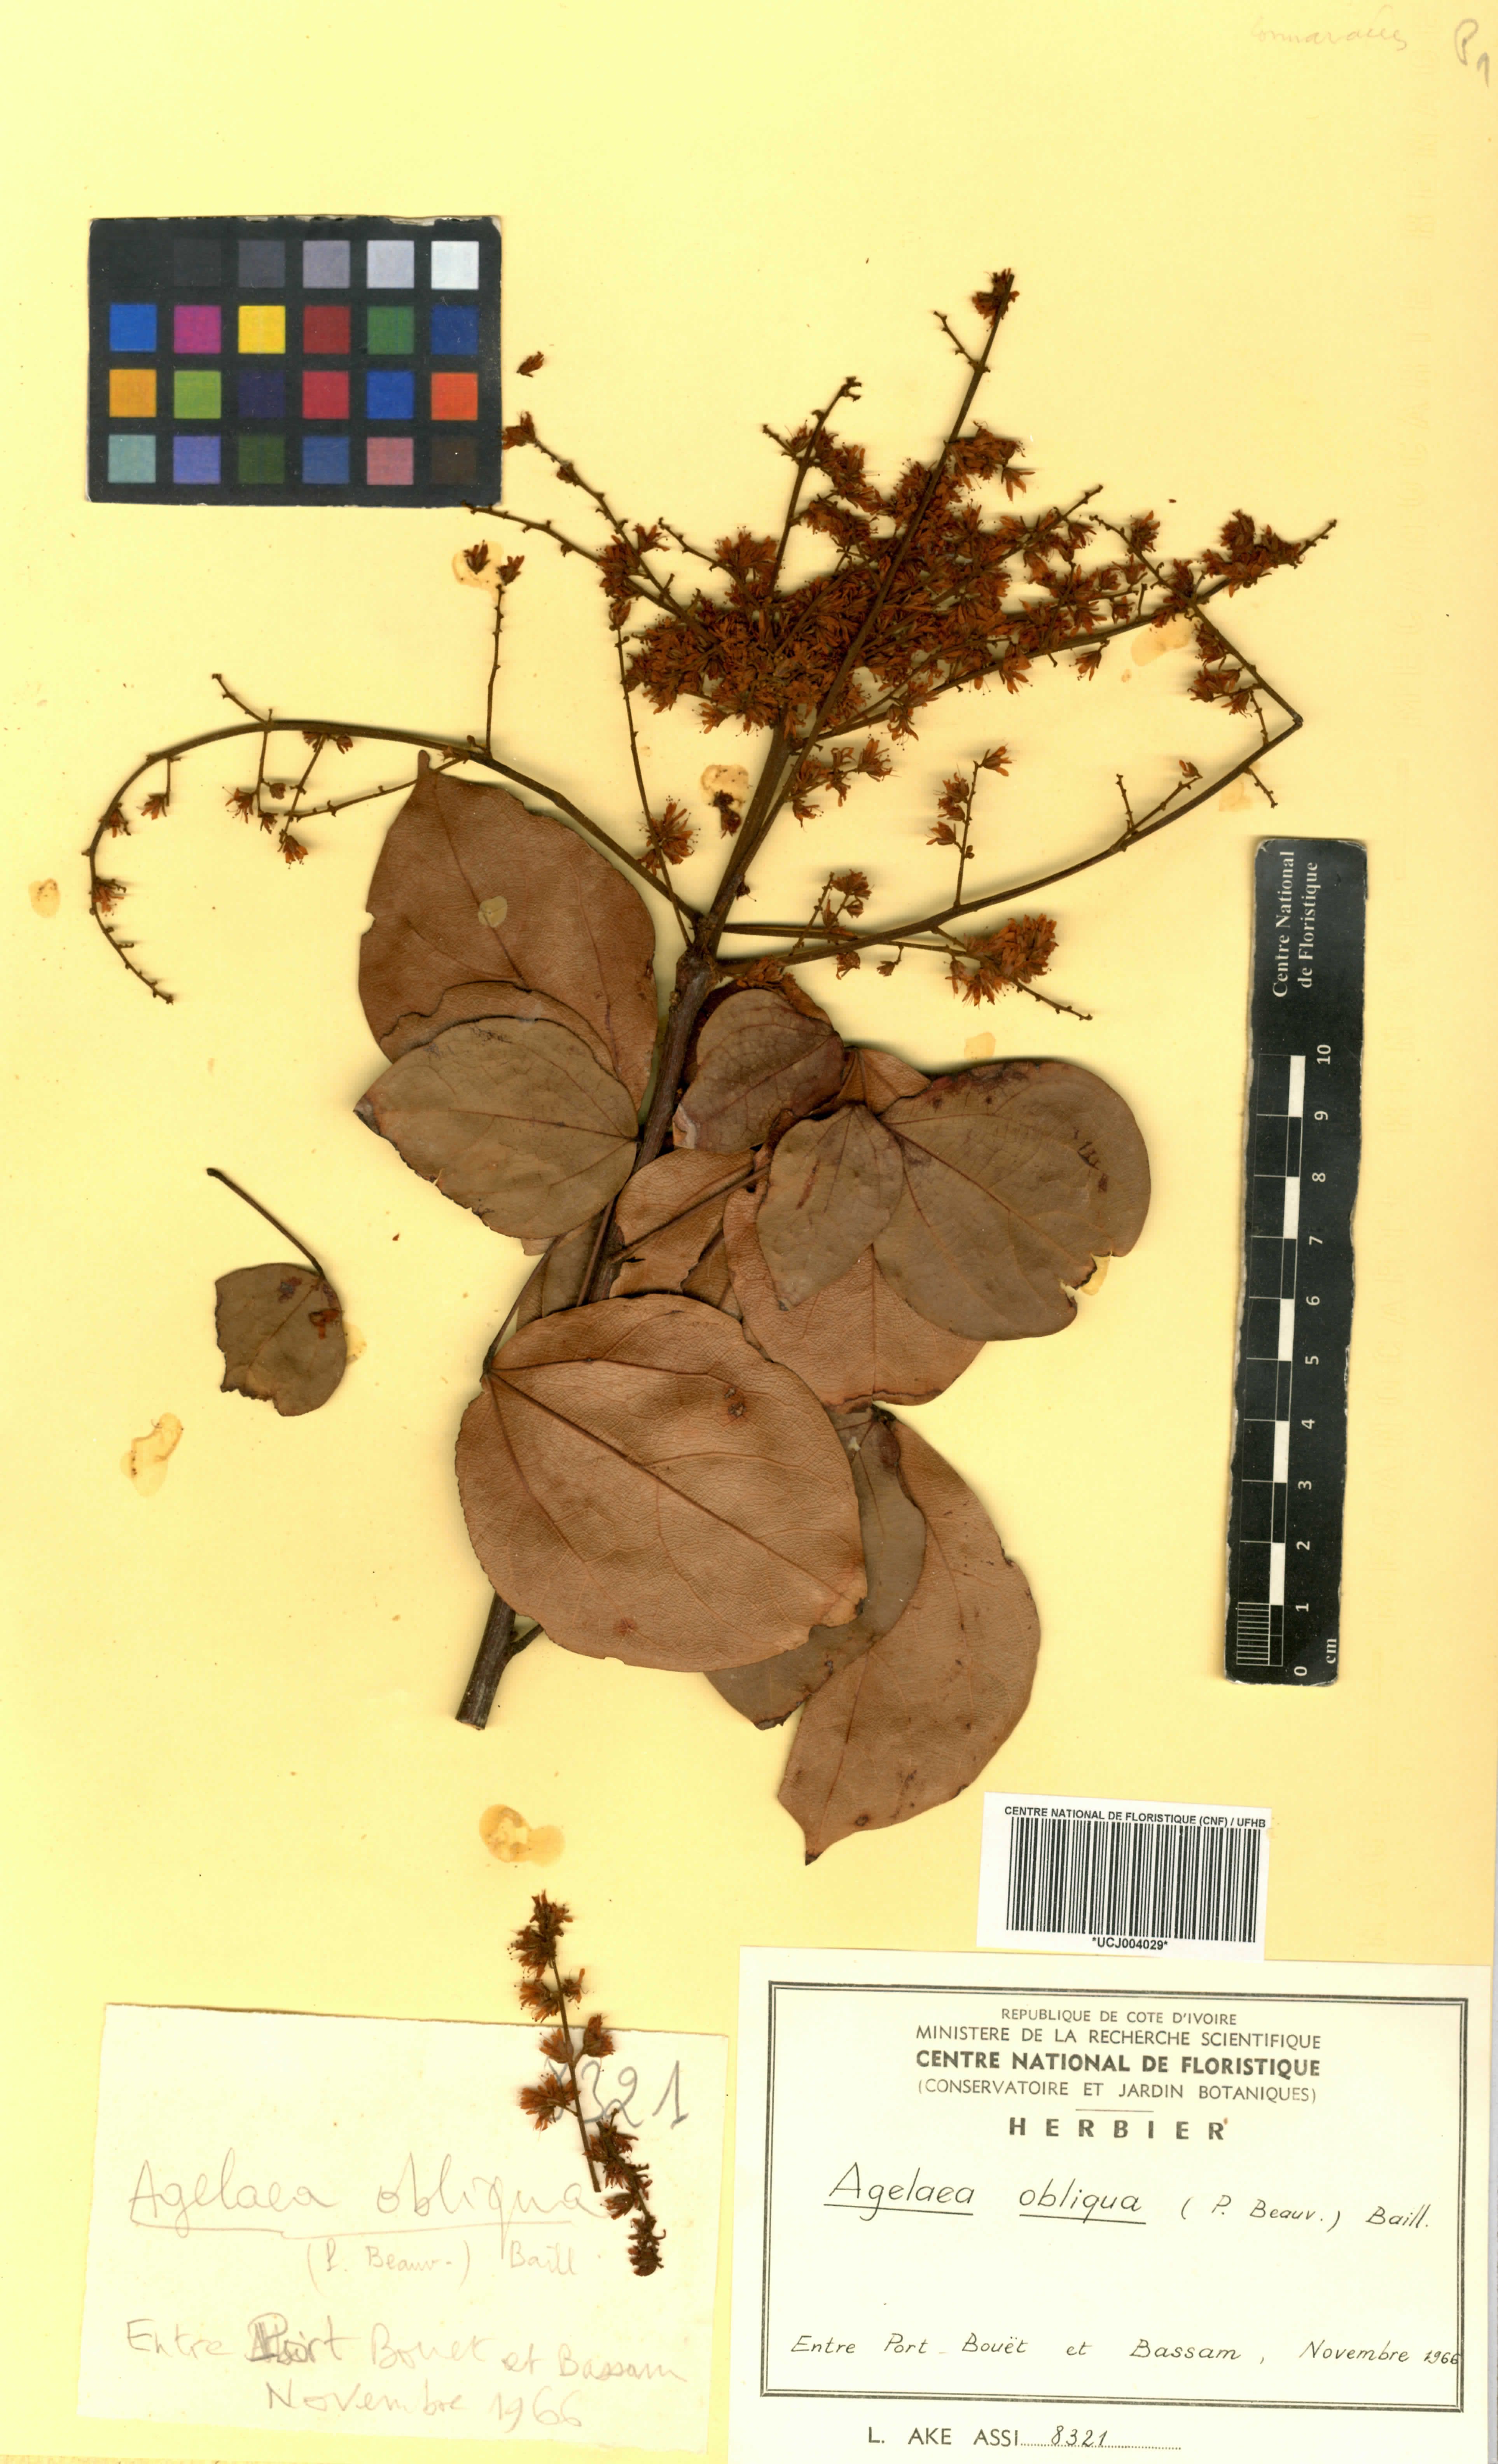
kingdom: Plantae
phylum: Tracheophyta
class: Magnoliopsida
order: Oxalidales
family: Connaraceae
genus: Agelaea
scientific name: Agelaea pentagyna
